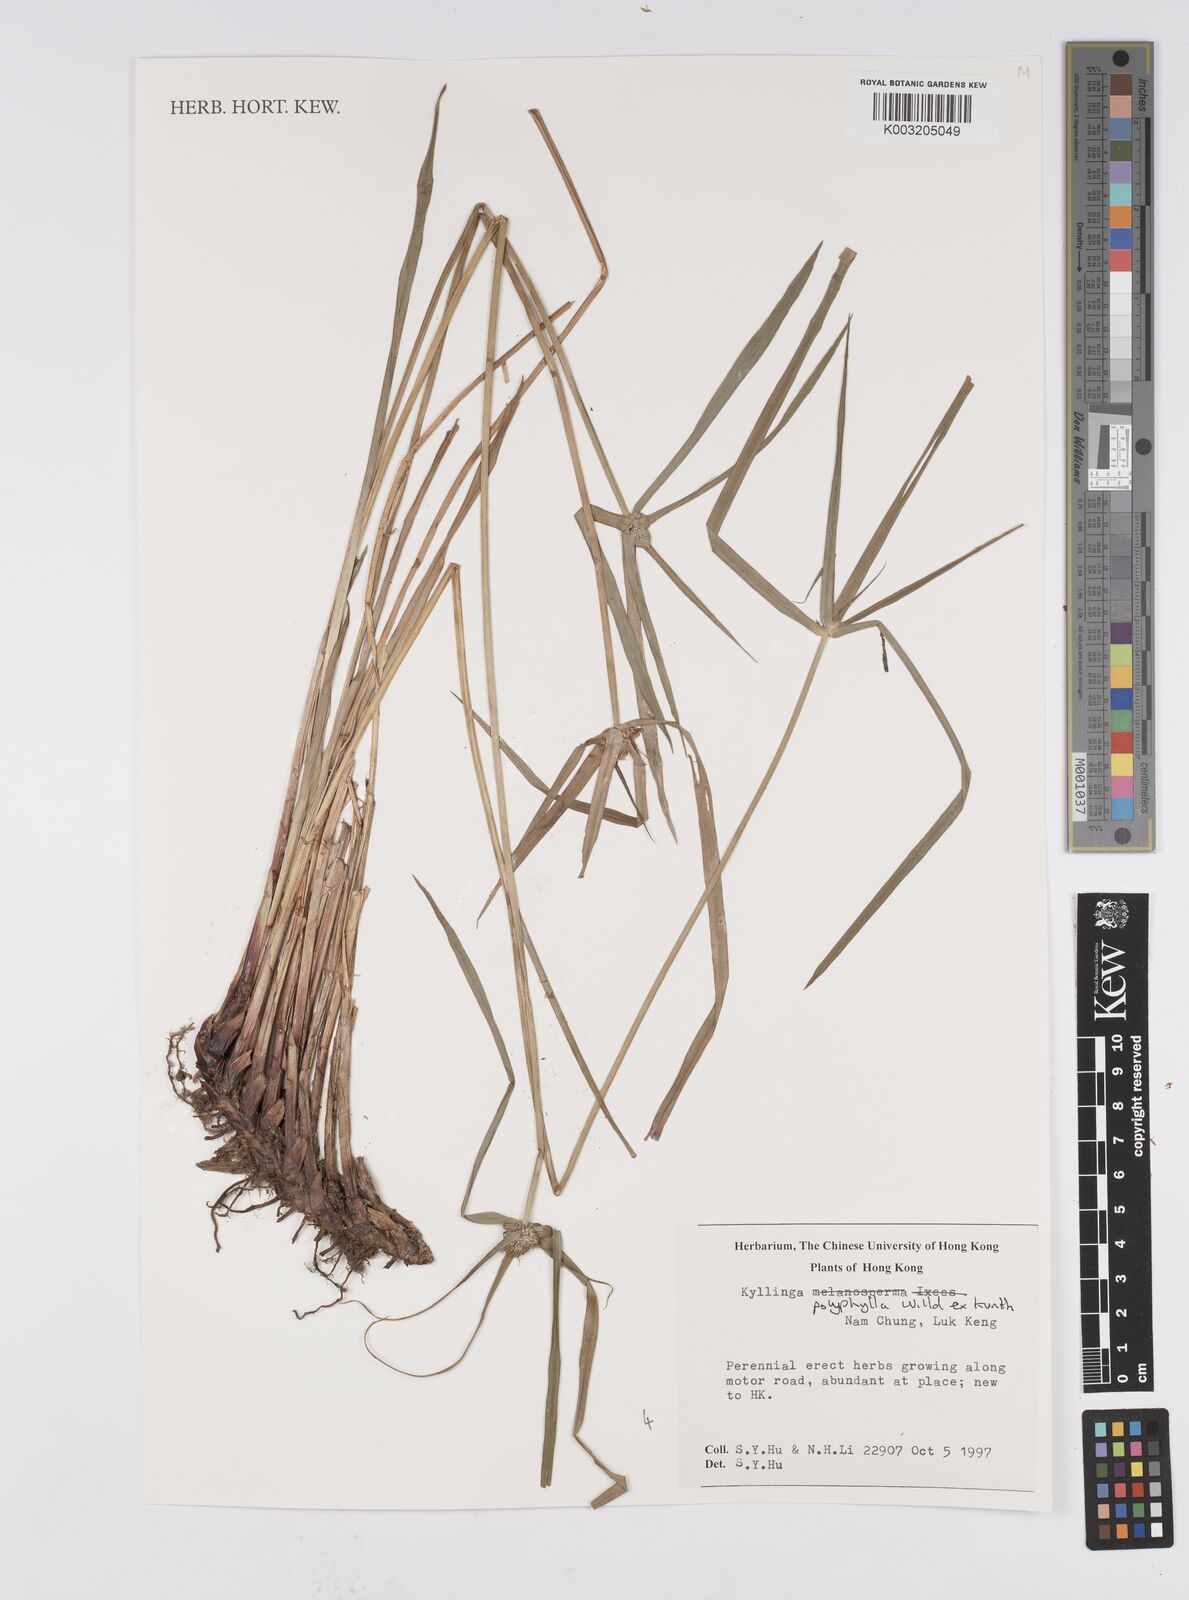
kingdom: Plantae
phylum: Tracheophyta
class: Liliopsida
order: Poales
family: Cyperaceae
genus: Cyperus
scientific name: Cyperus
